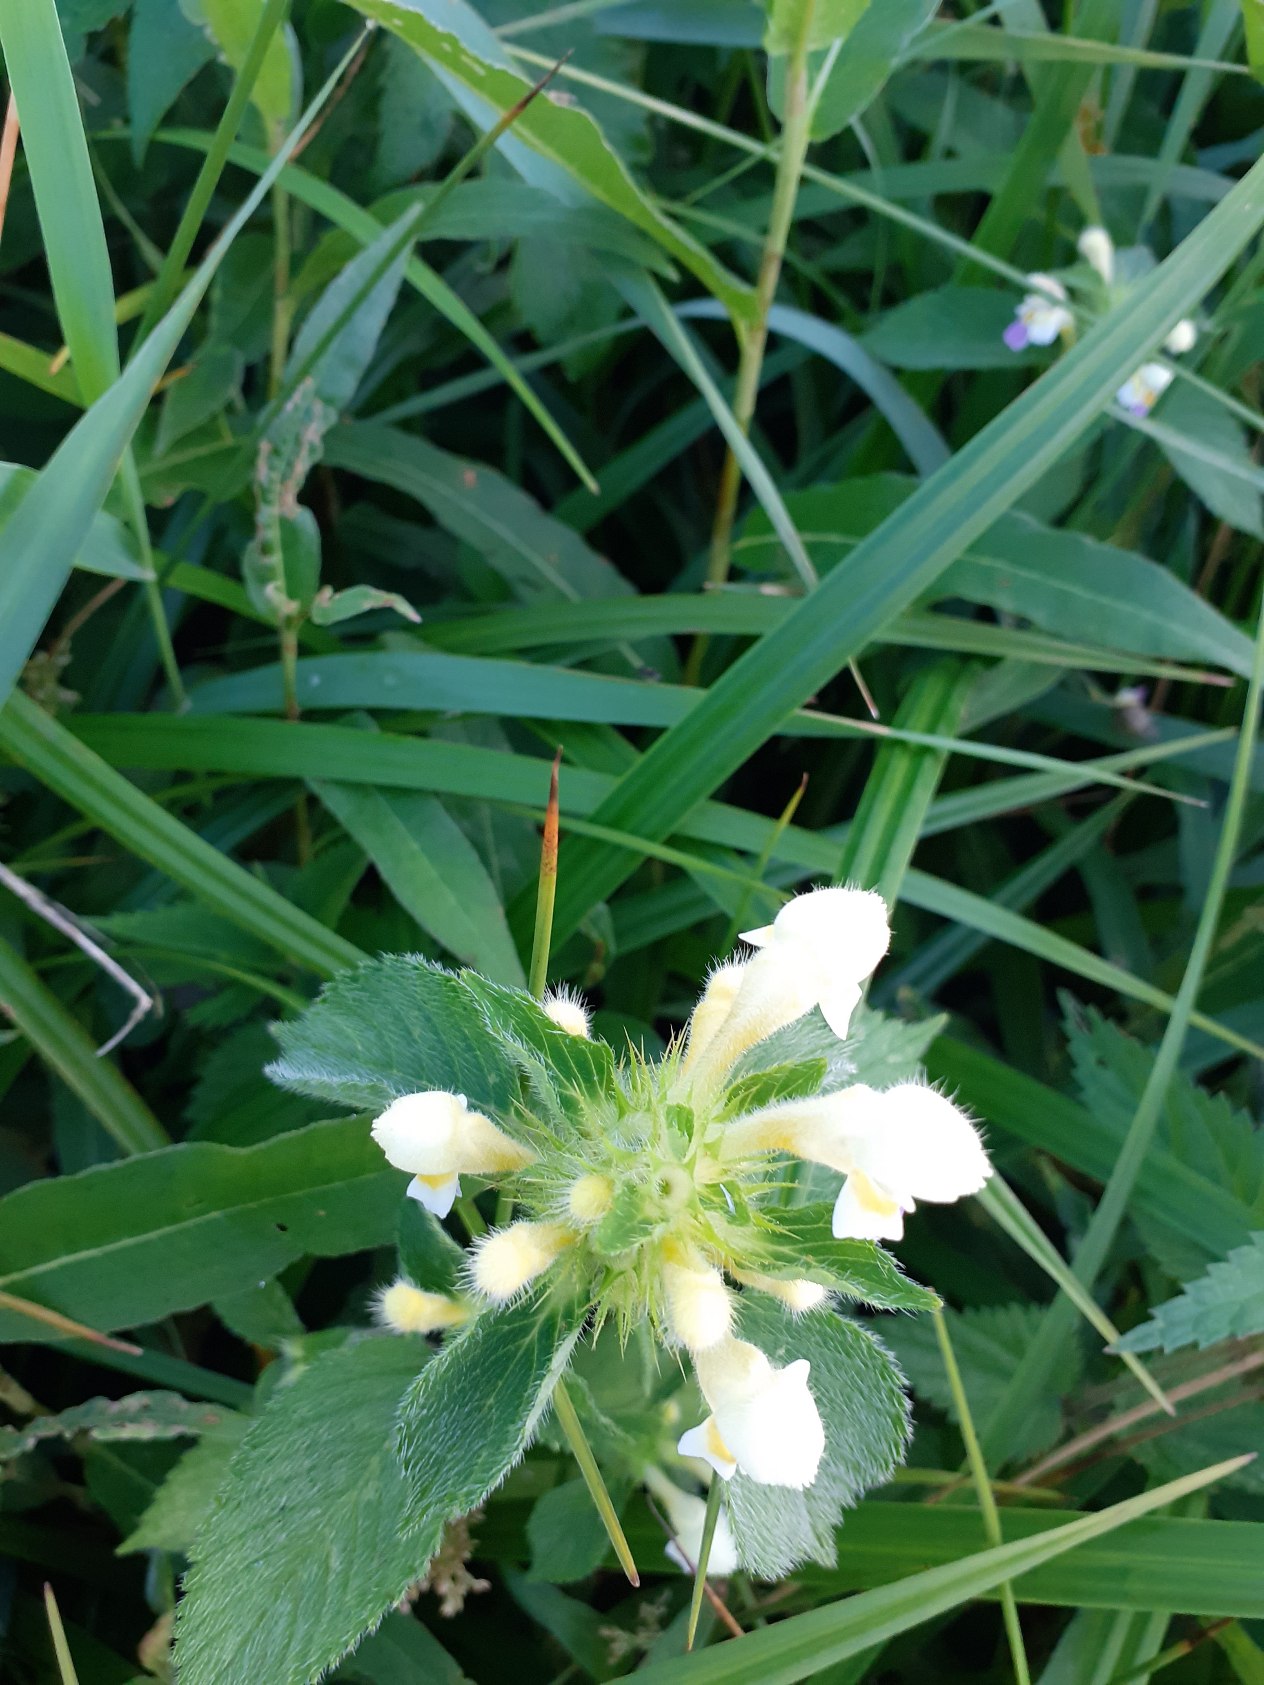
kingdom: Plantae
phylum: Tracheophyta
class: Magnoliopsida
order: Lamiales
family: Lamiaceae
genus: Galeopsis
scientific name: Galeopsis speciosa
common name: Hamp-hanekro
